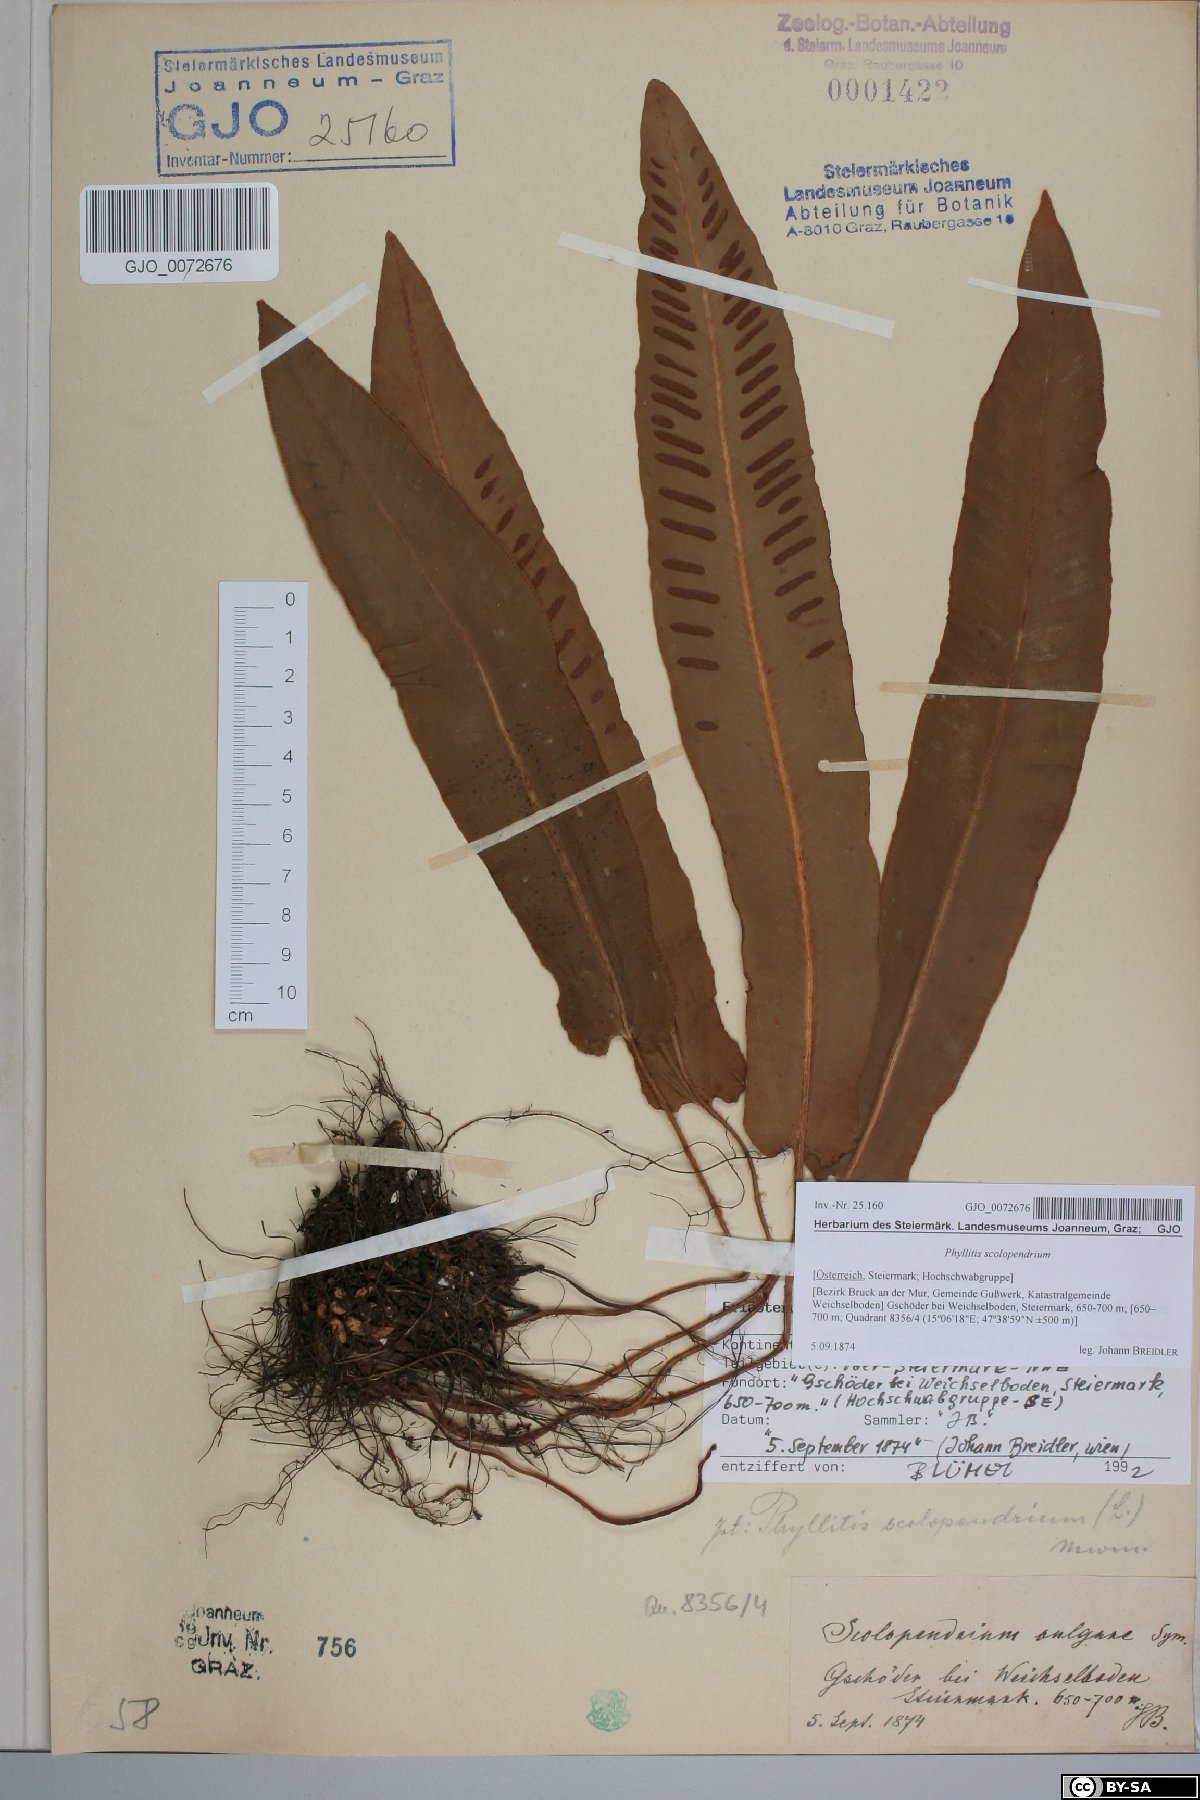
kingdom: Plantae
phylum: Tracheophyta
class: Polypodiopsida
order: Polypodiales
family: Aspleniaceae
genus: Asplenium
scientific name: Asplenium scolopendrium
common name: Hart's-tongue fern
